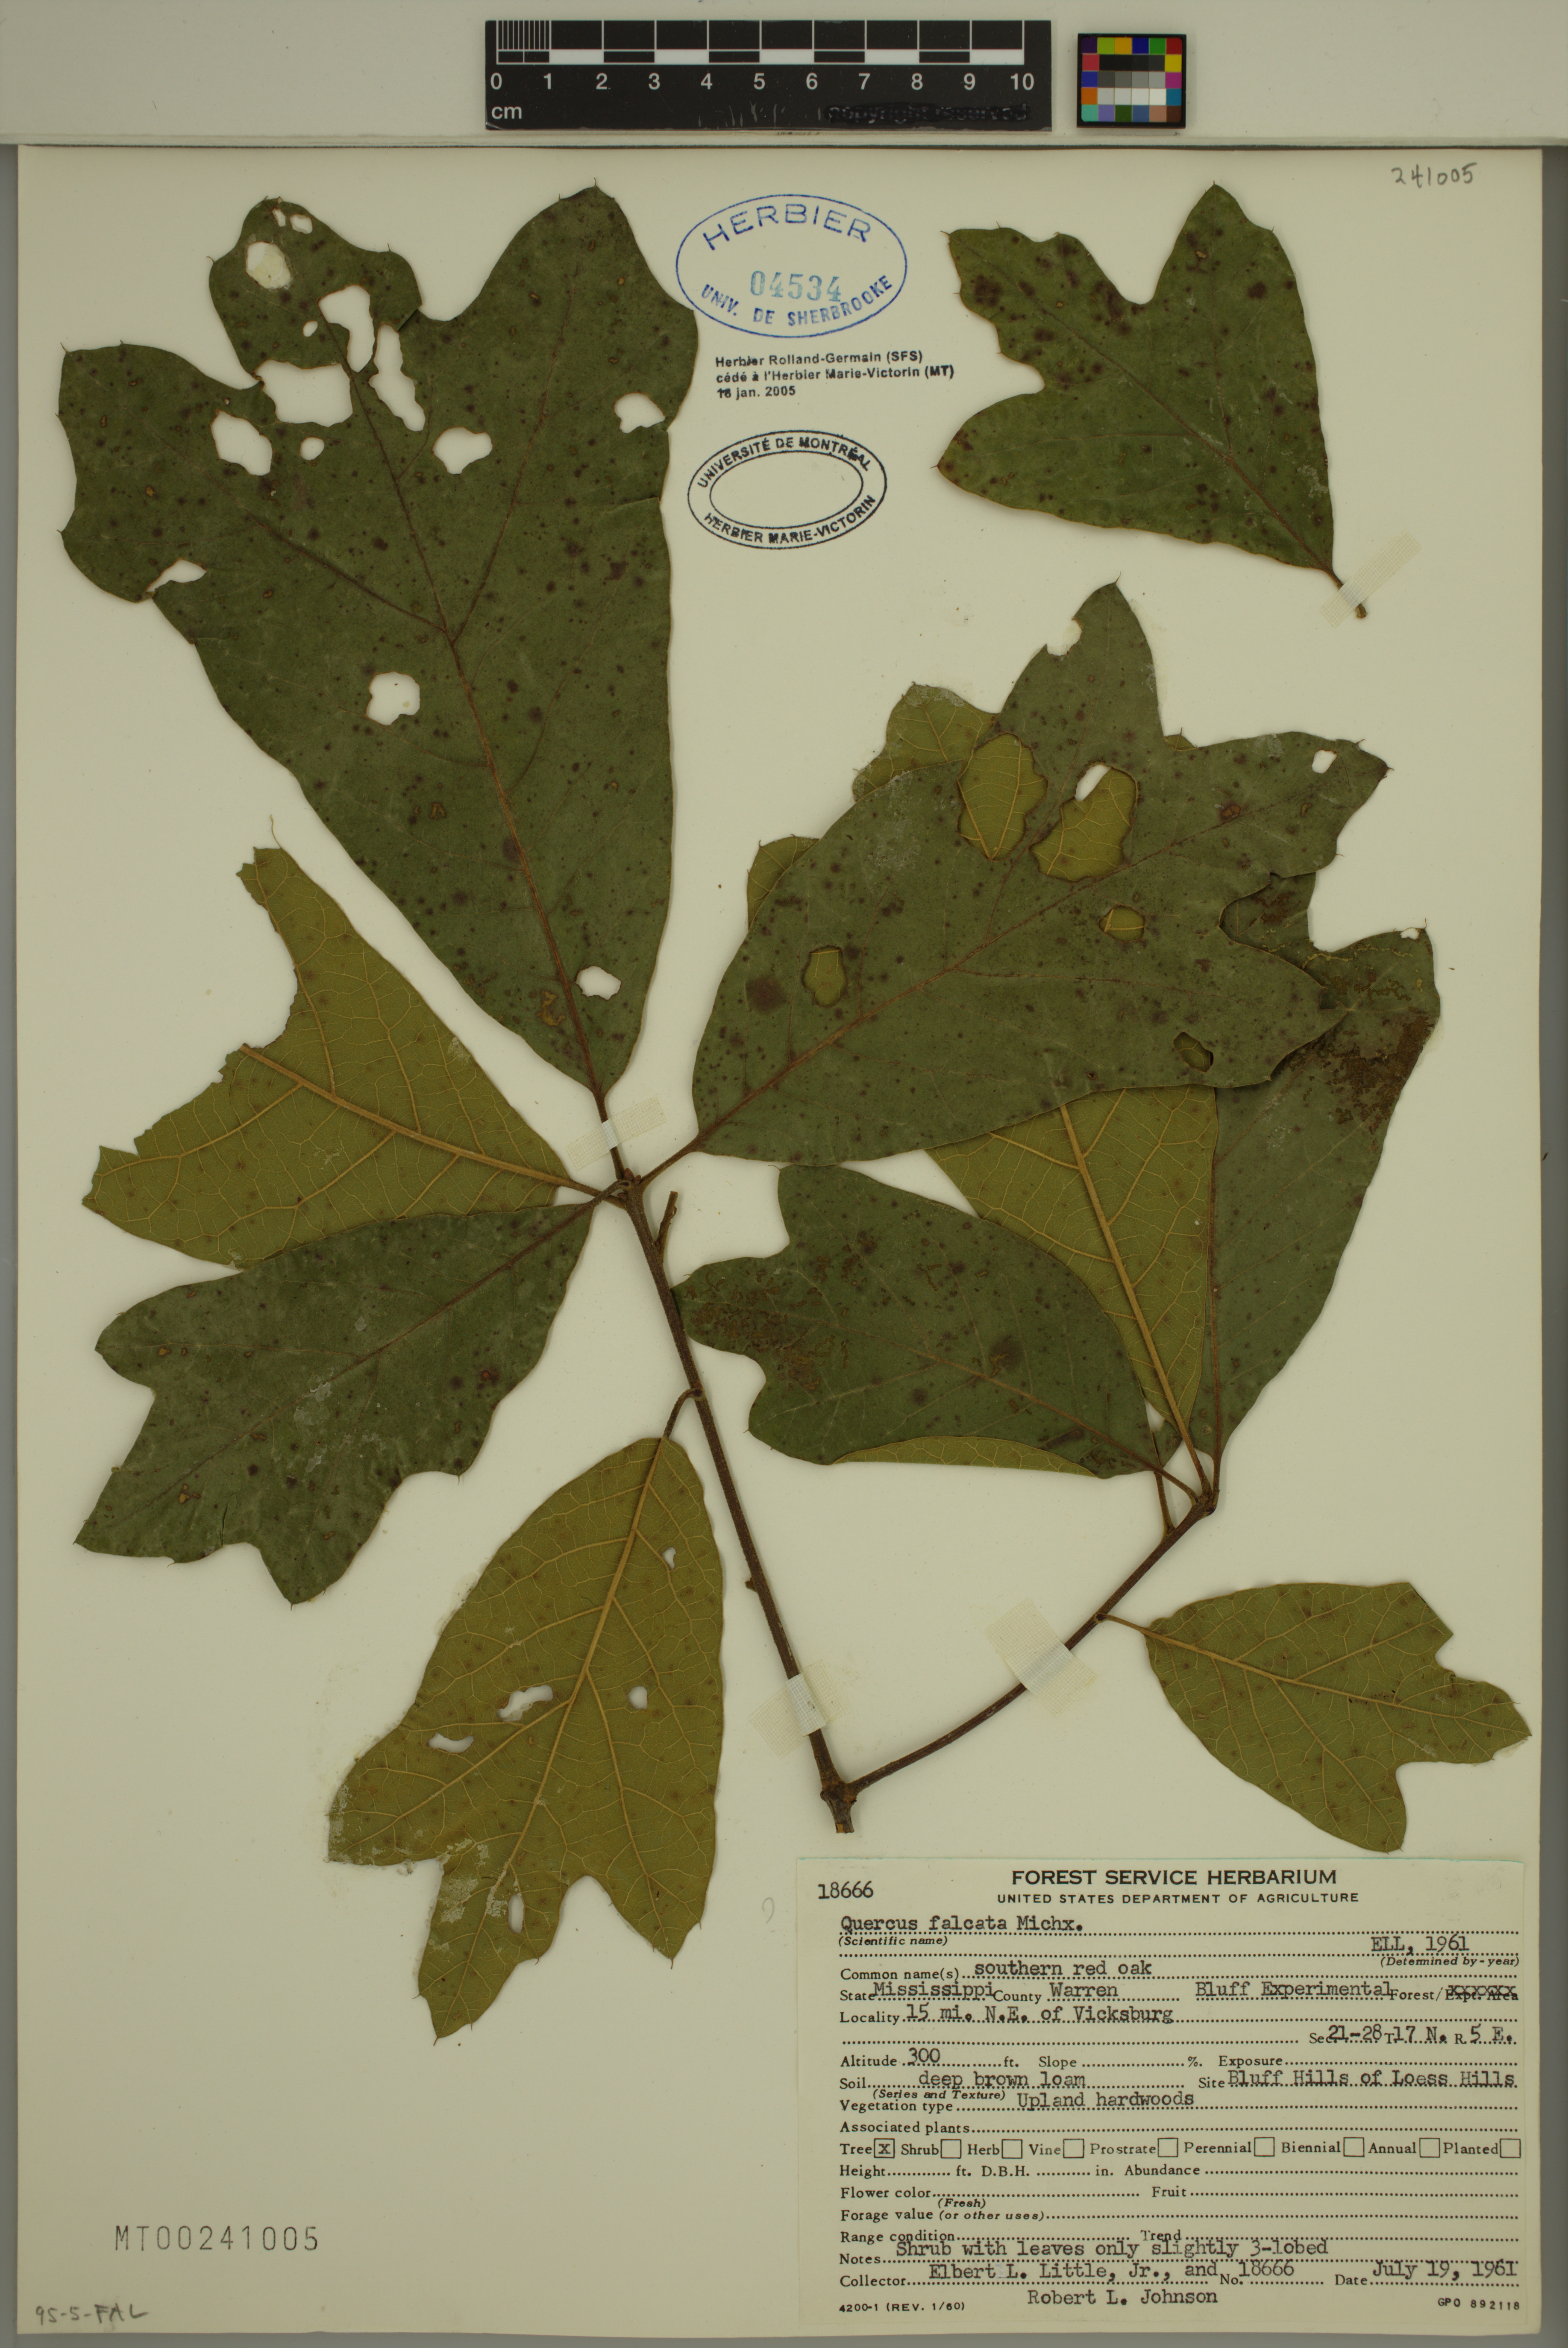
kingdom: Plantae
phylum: Tracheophyta
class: Magnoliopsida
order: Fagales
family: Fagaceae
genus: Quercus
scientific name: Quercus falcata
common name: Southern red oak
